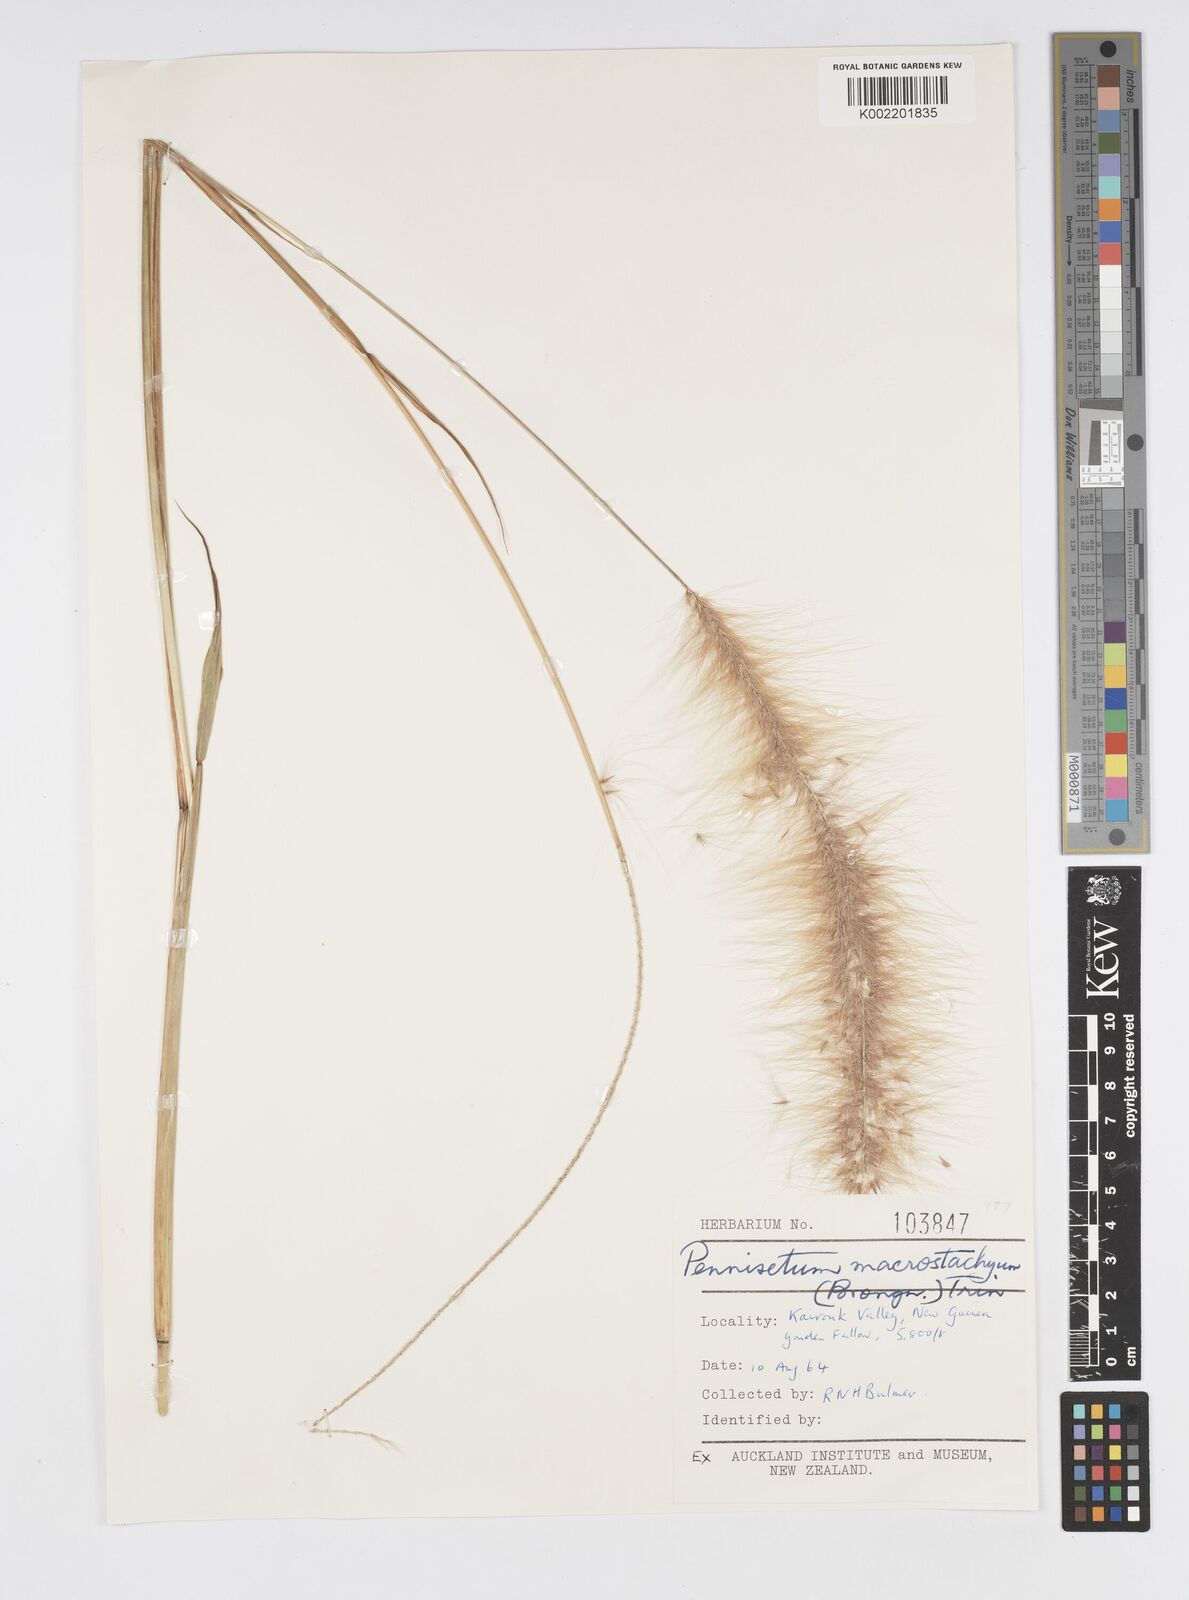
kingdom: Plantae
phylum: Tracheophyta
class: Liliopsida
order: Poales
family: Poaceae
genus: Cenchrus
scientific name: Cenchrus purpureus
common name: Elephant grass
